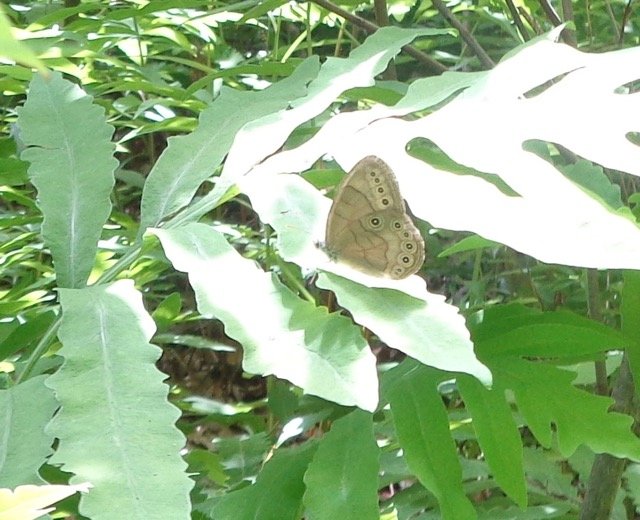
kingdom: Animalia
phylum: Arthropoda
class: Insecta
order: Lepidoptera
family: Nymphalidae
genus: Lethe
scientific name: Lethe eurydice
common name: Appalachian Eyed Brown
